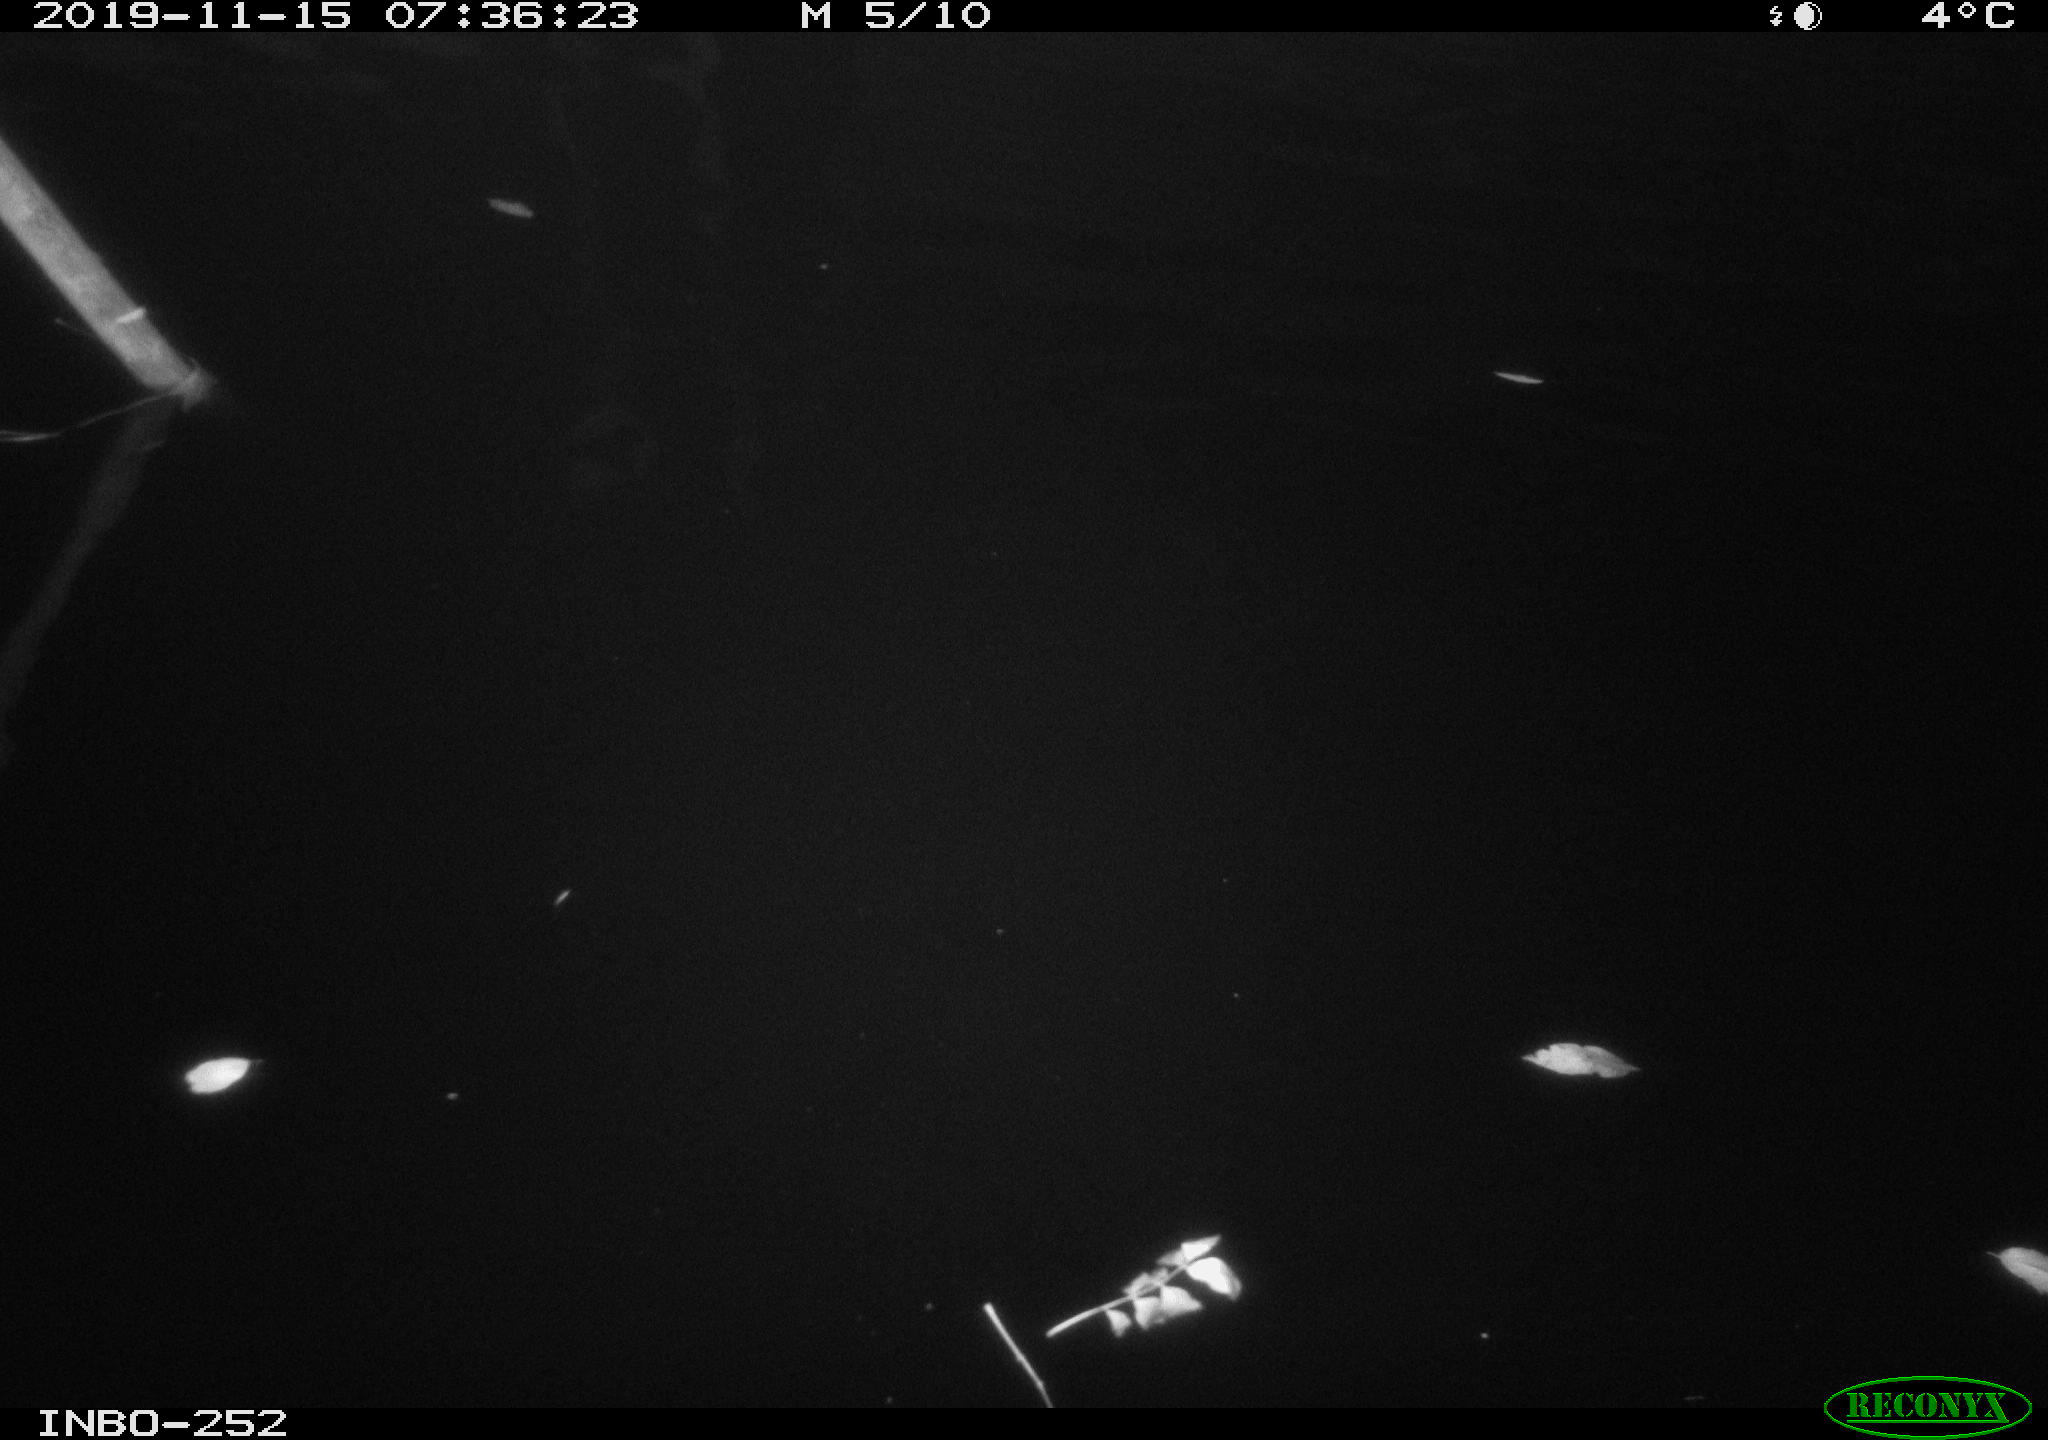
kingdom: Animalia
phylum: Chordata
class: Aves
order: Anseriformes
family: Anatidae
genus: Anas
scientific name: Anas platyrhynchos
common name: Mallard
